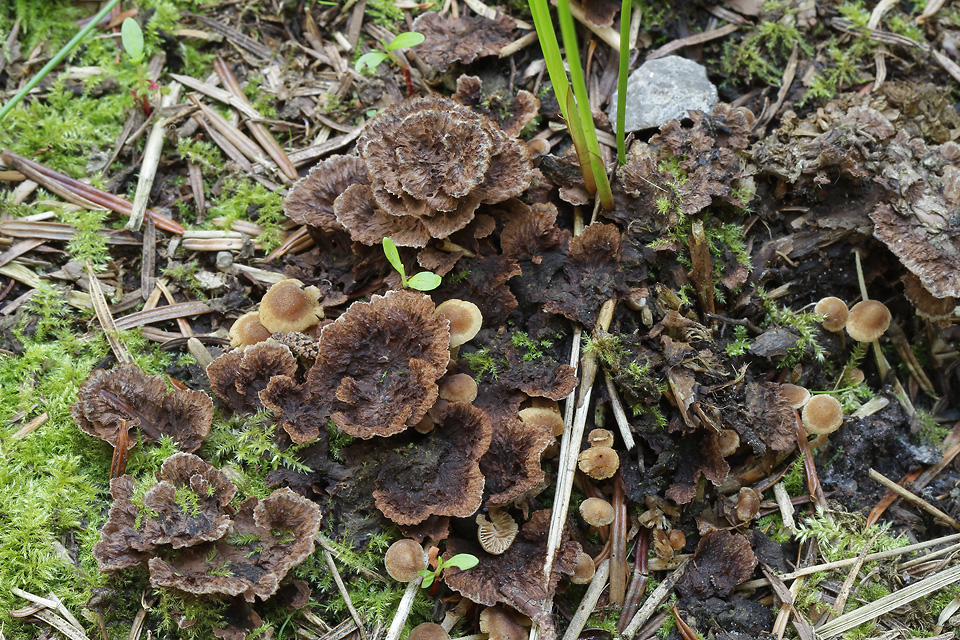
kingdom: Fungi
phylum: Basidiomycota
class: Agaricomycetes
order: Thelephorales
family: Thelephoraceae
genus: Thelephora
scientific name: Thelephora terrestris
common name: fliget frynsesvamp
